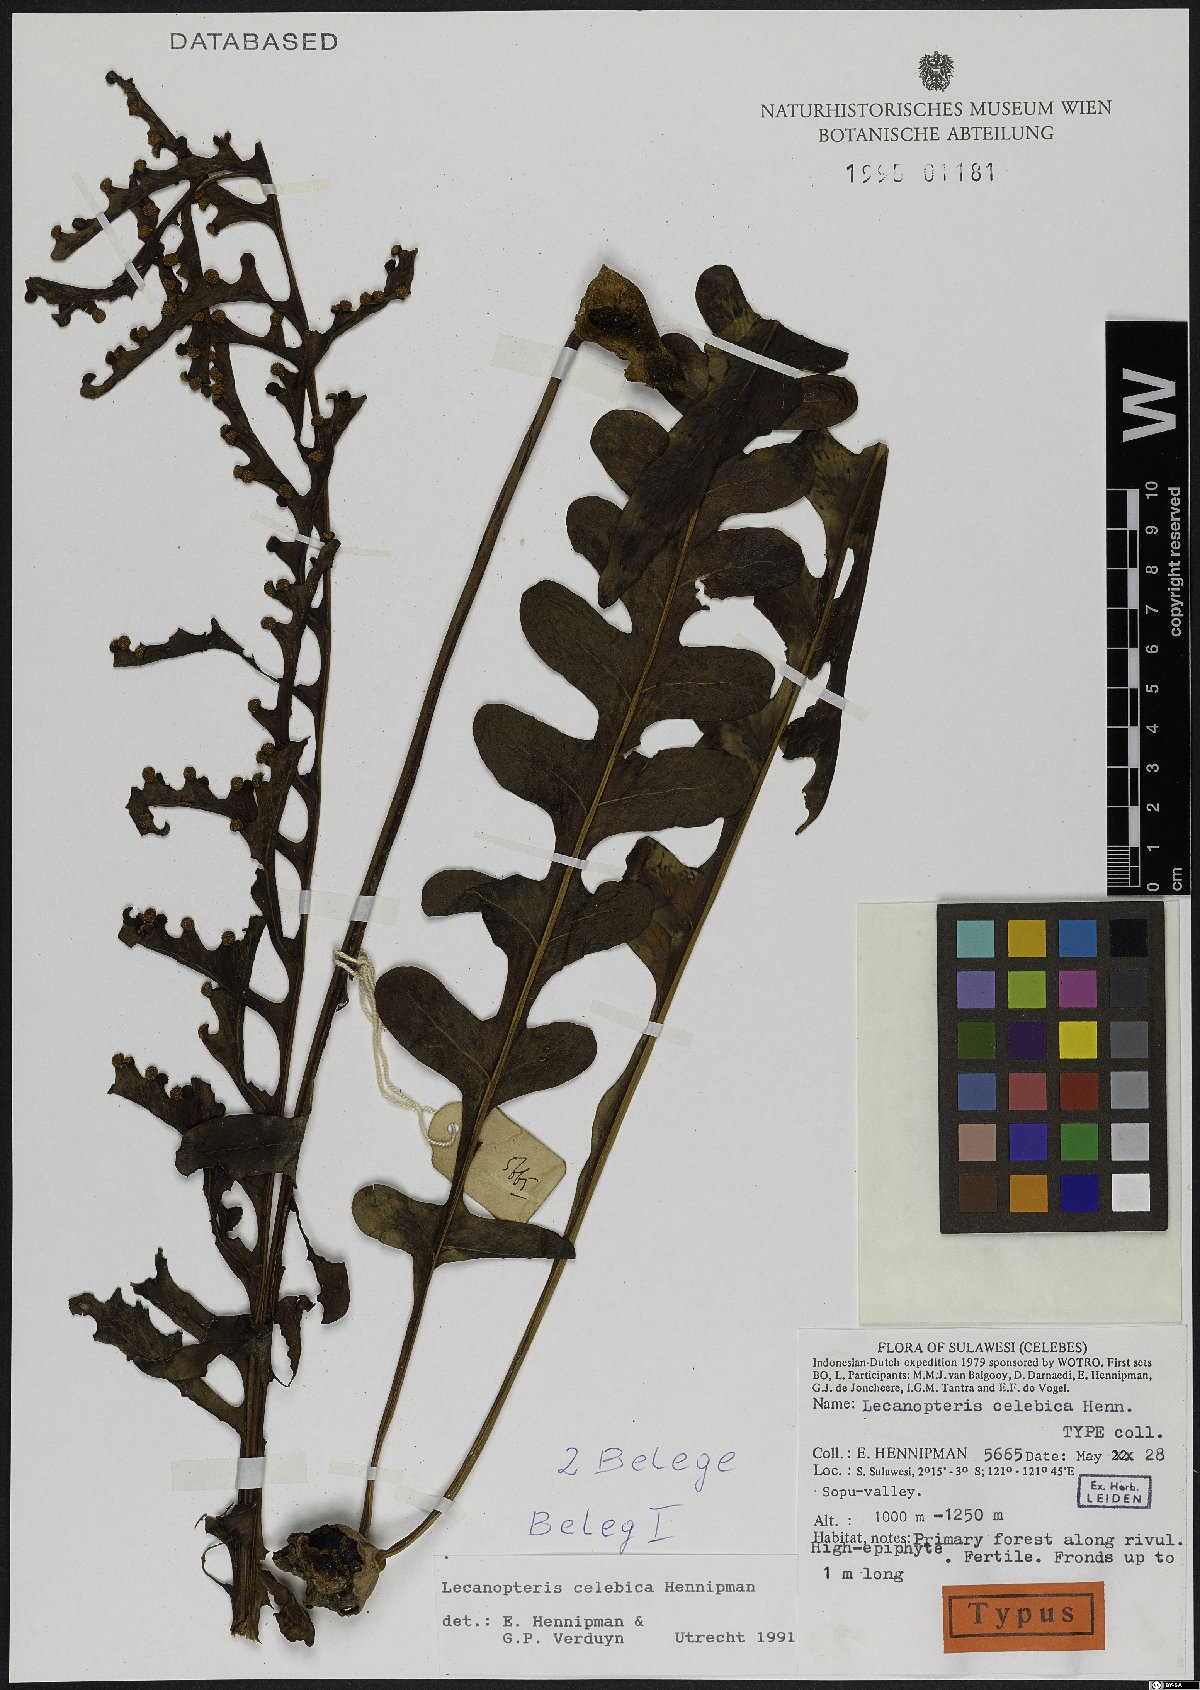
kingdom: Plantae
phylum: Tracheophyta
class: Polypodiopsida
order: Polypodiales
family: Polypodiaceae
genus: Lecanopteris
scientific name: Lecanopteris celebica
